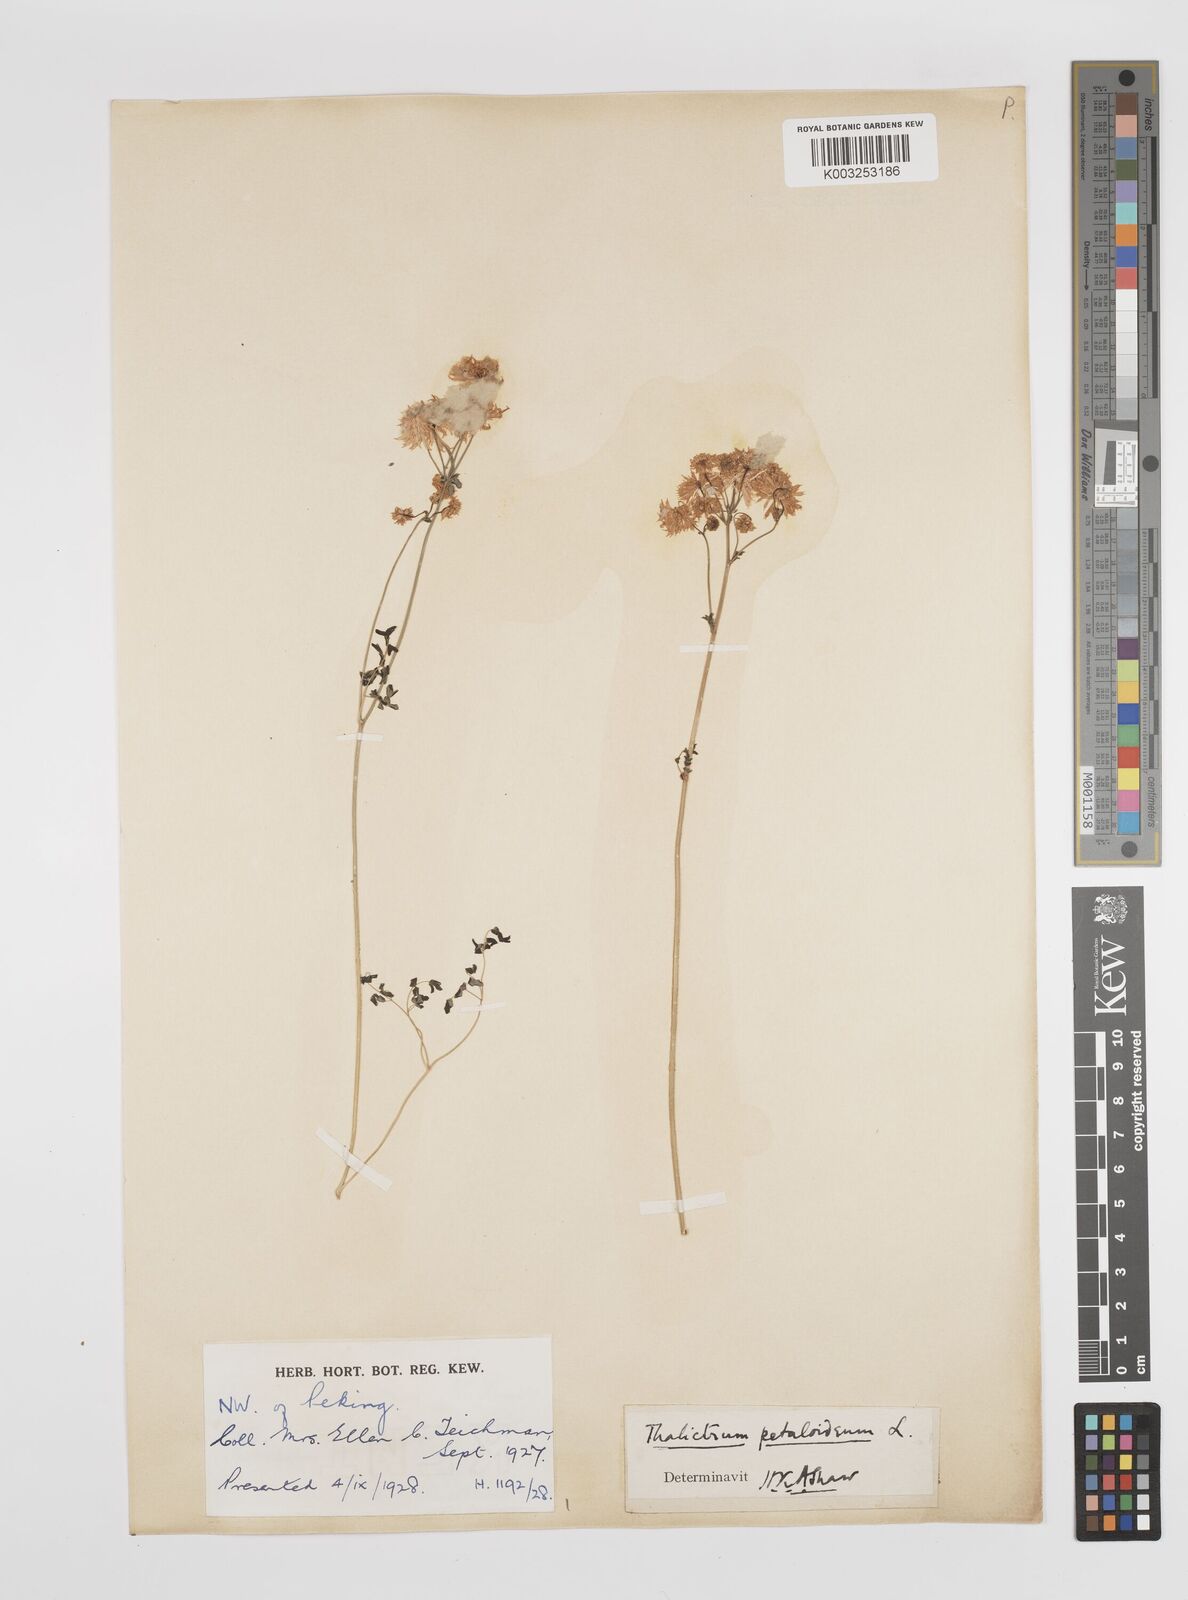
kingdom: Plantae
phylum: Tracheophyta
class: Magnoliopsida
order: Ranunculales
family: Ranunculaceae
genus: Thalictrum
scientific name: Thalictrum petaloideum
